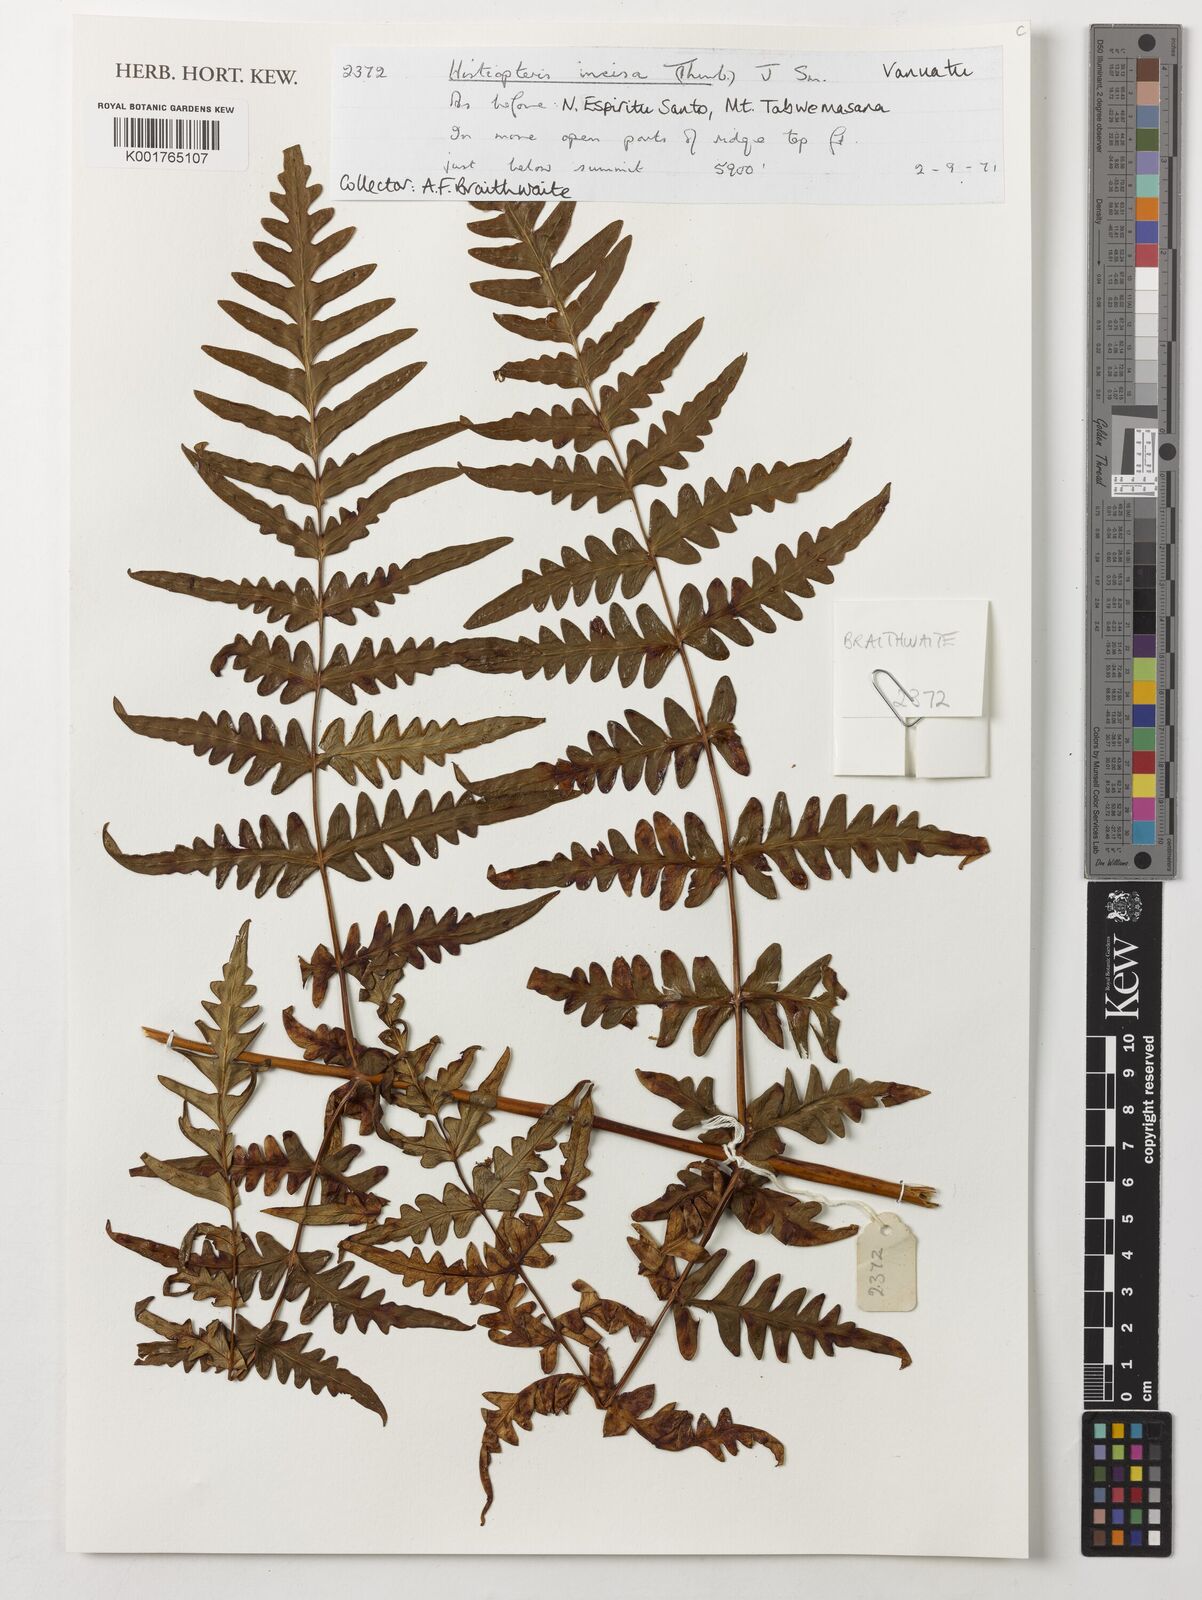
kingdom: Plantae
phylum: Tracheophyta
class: Polypodiopsida
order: Polypodiales
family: Dennstaedtiaceae
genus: Histiopteris
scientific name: Histiopteris incisa
